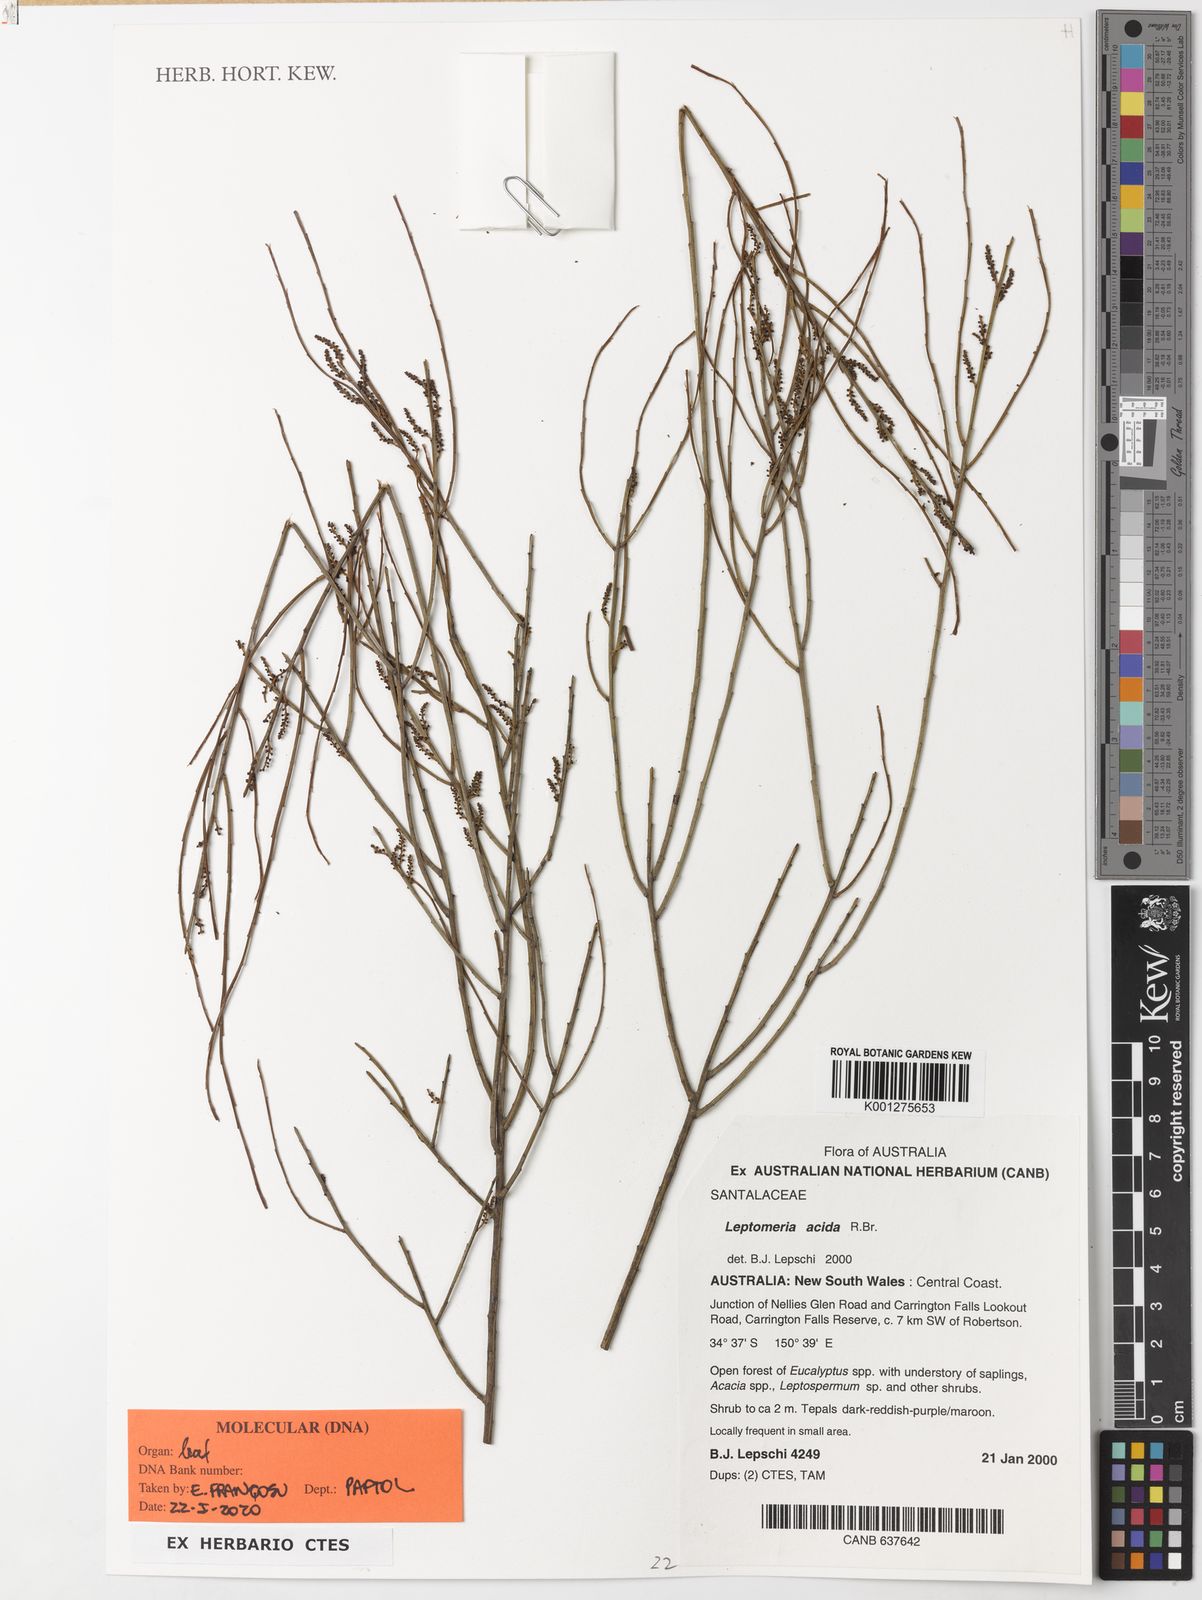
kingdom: Plantae
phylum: Tracheophyta
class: Magnoliopsida
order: Santalales
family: Amphorogynaceae
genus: Leptomeria
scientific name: Leptomeria acida
